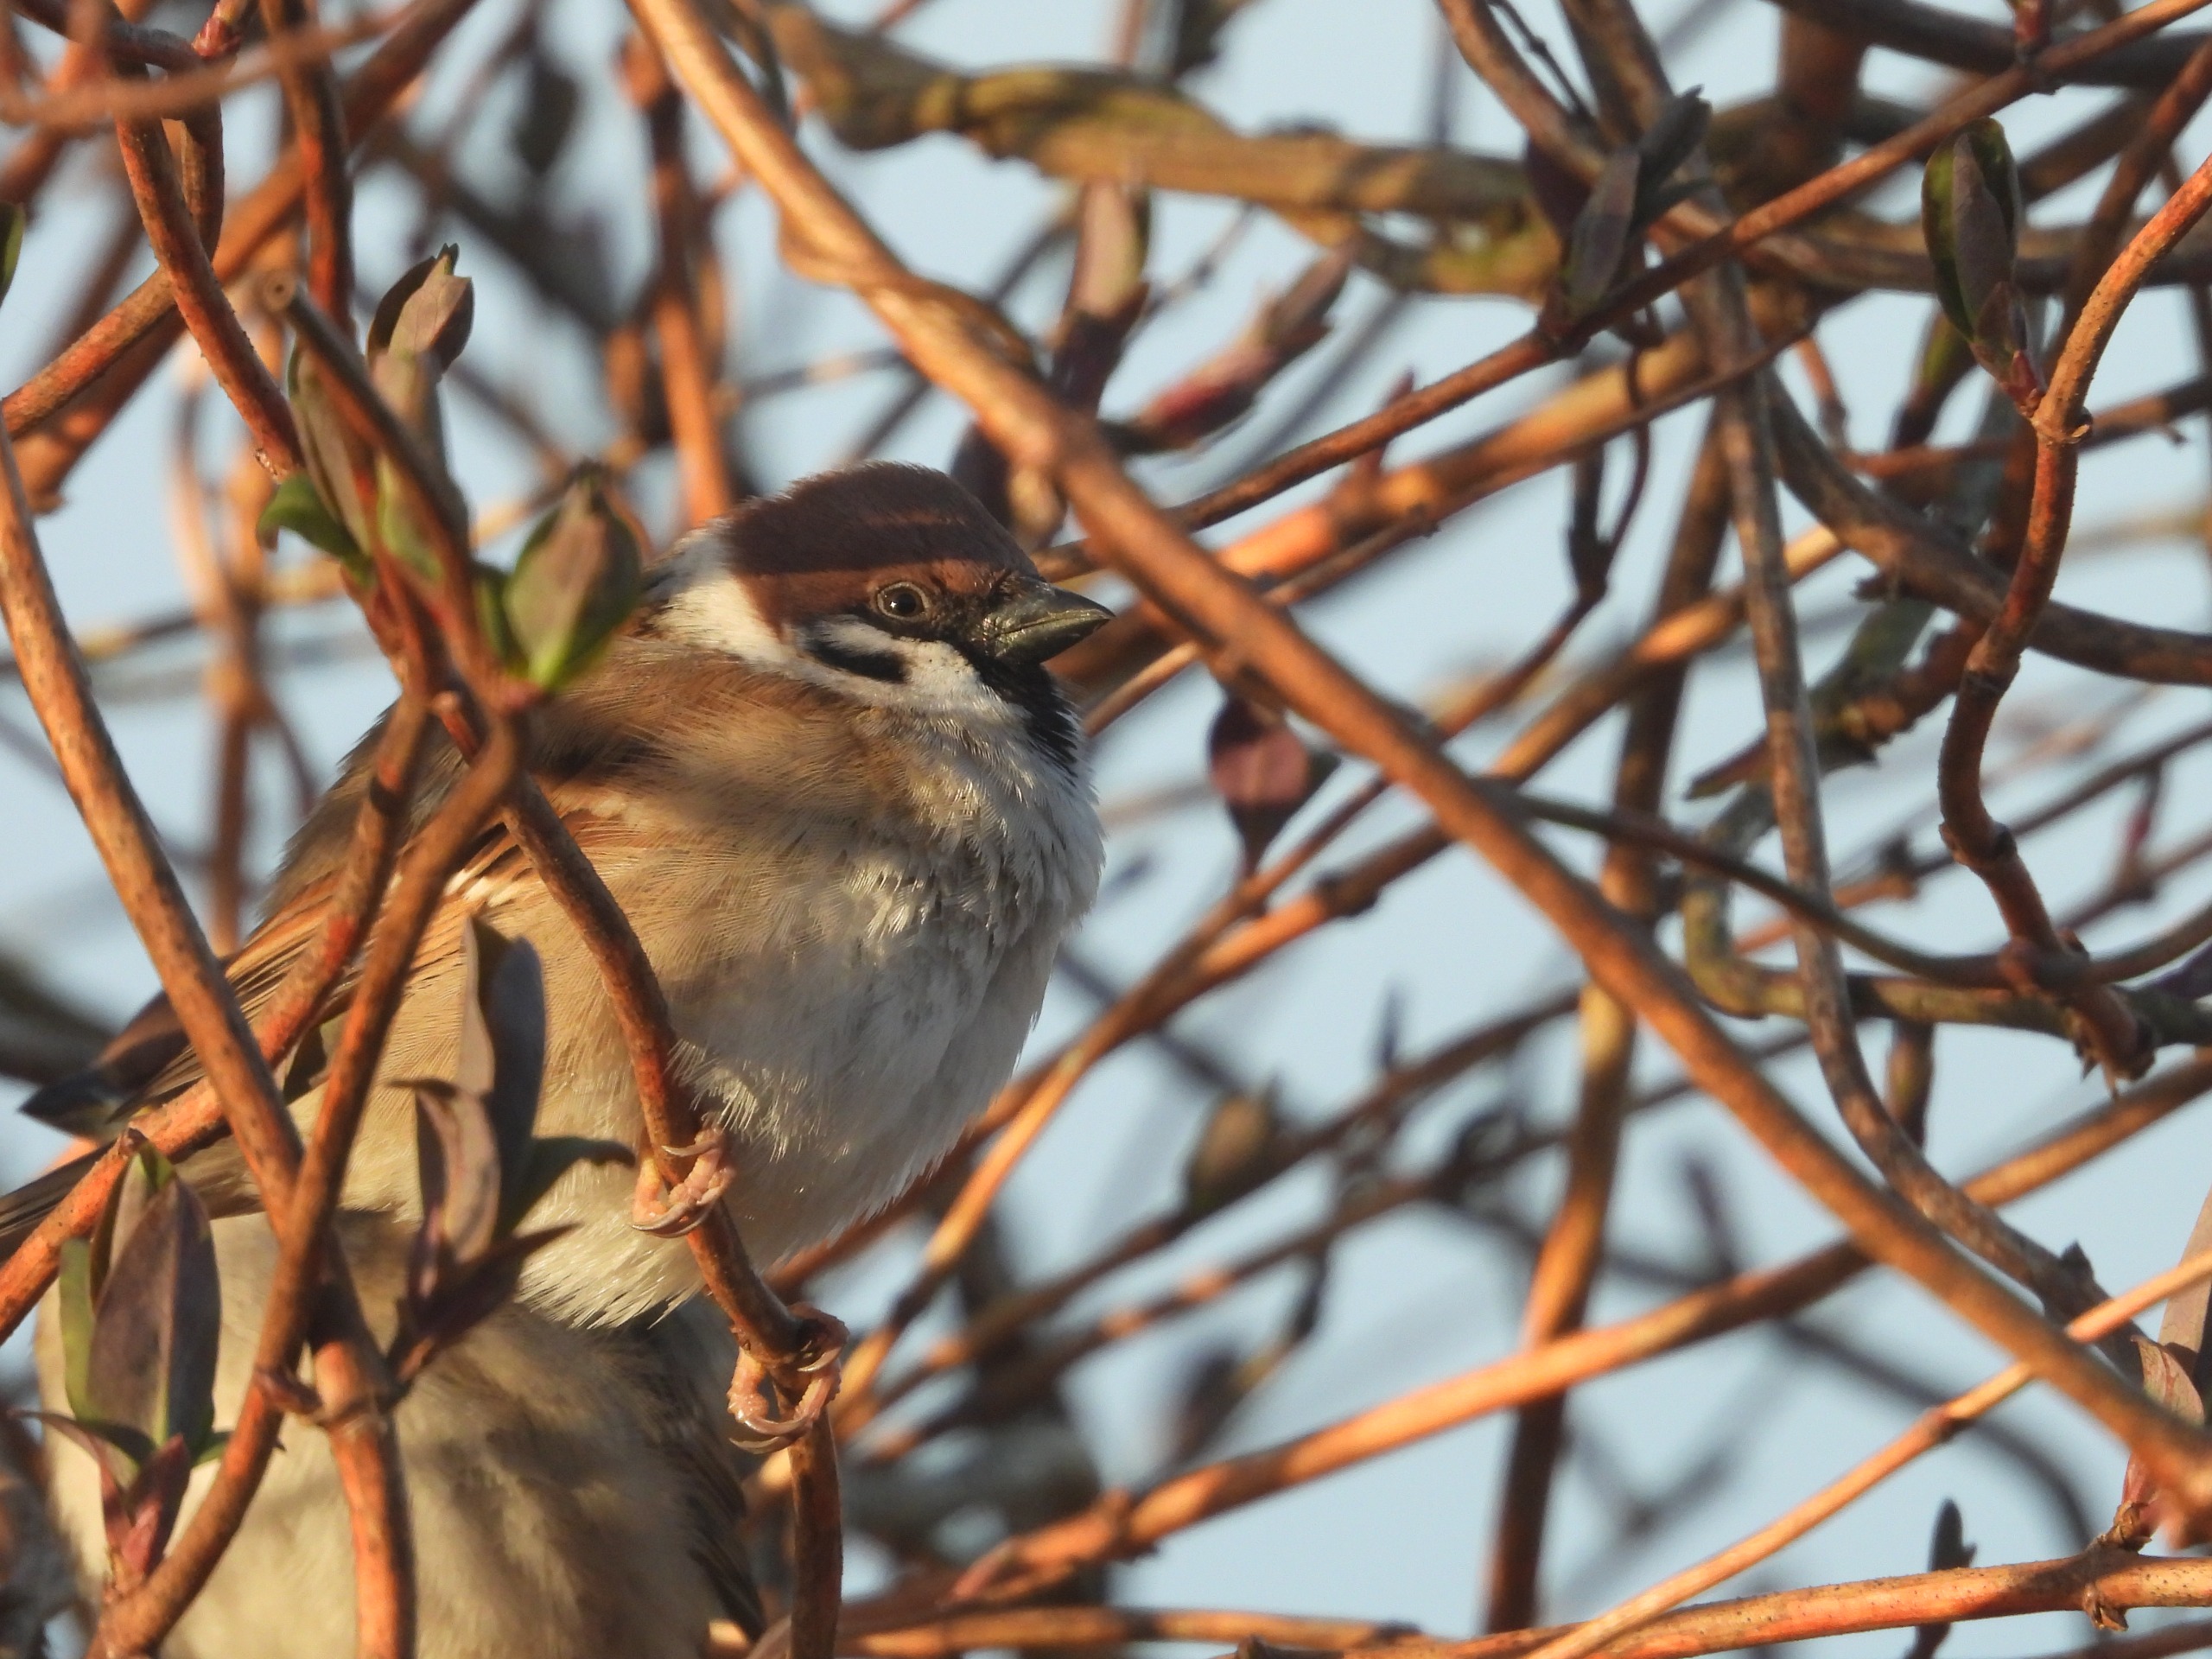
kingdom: Animalia
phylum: Chordata
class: Aves
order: Passeriformes
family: Passeridae
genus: Passer
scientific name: Passer montanus
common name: Skovspurv
